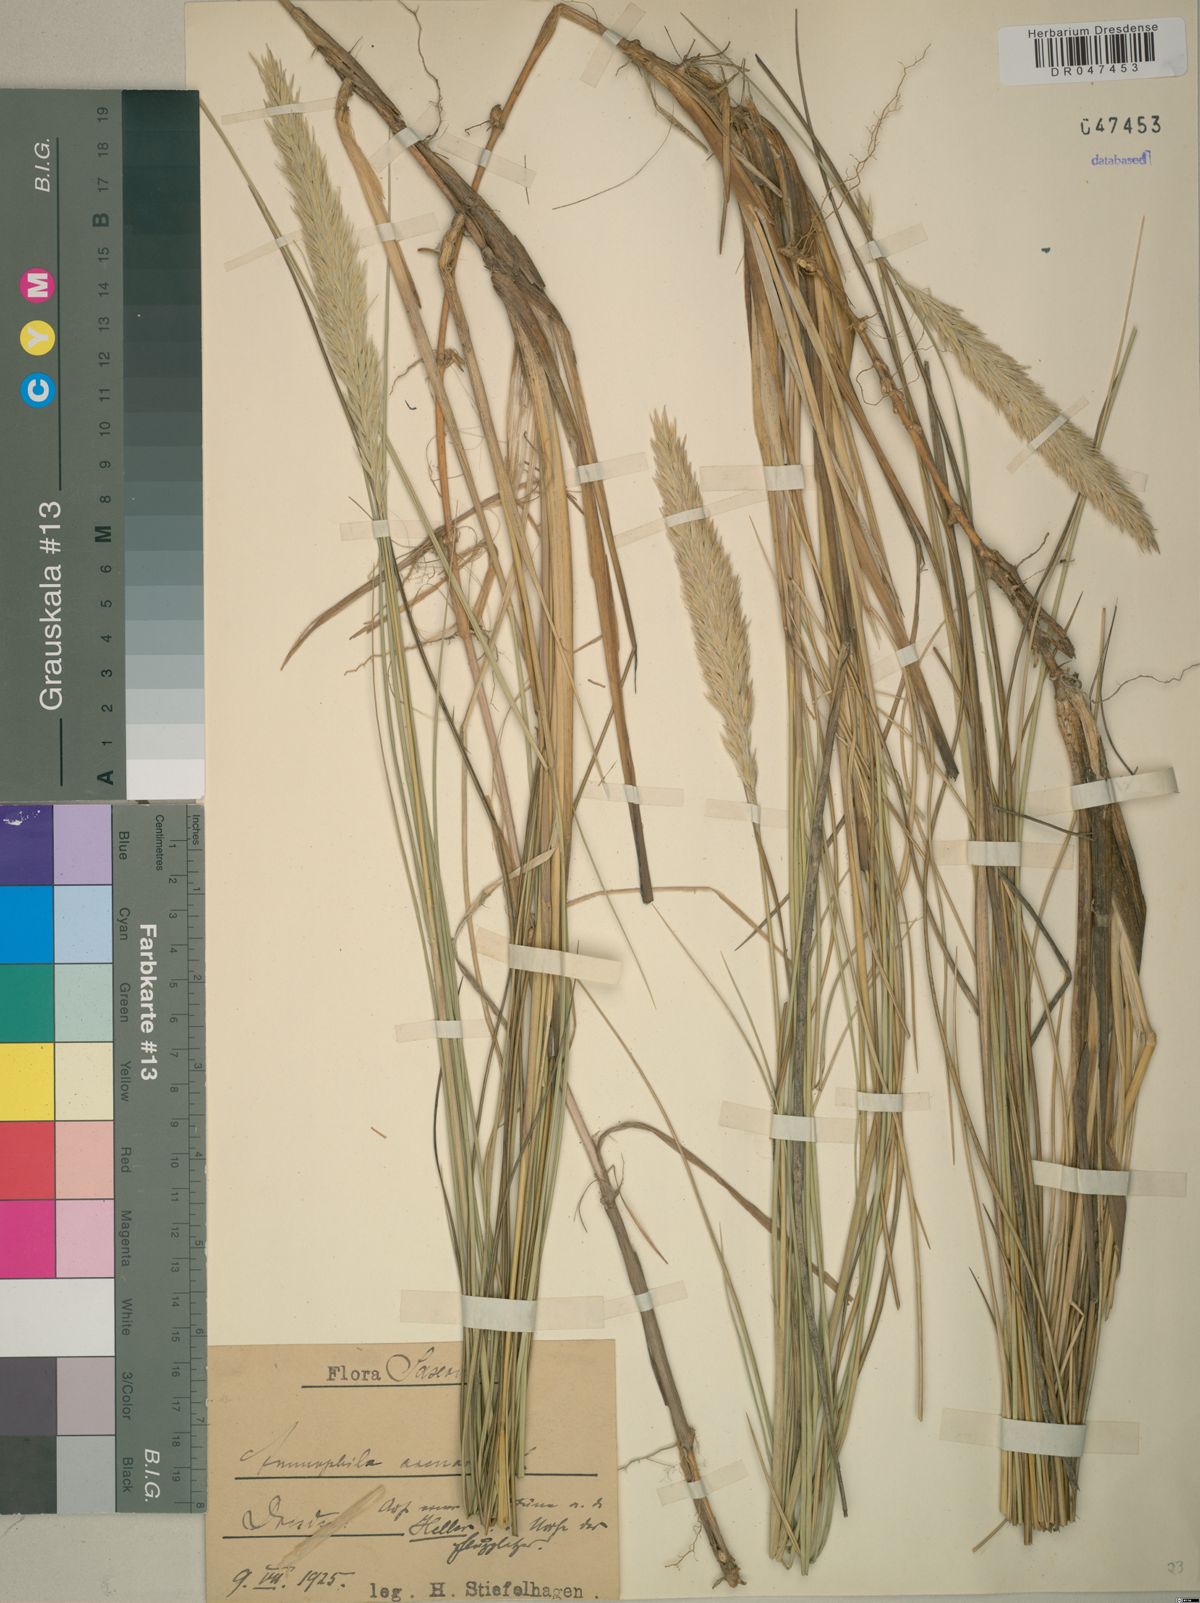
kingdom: Plantae
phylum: Tracheophyta
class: Liliopsida
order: Poales
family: Poaceae
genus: Calamagrostis
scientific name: Calamagrostis arenaria
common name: European beachgrass
